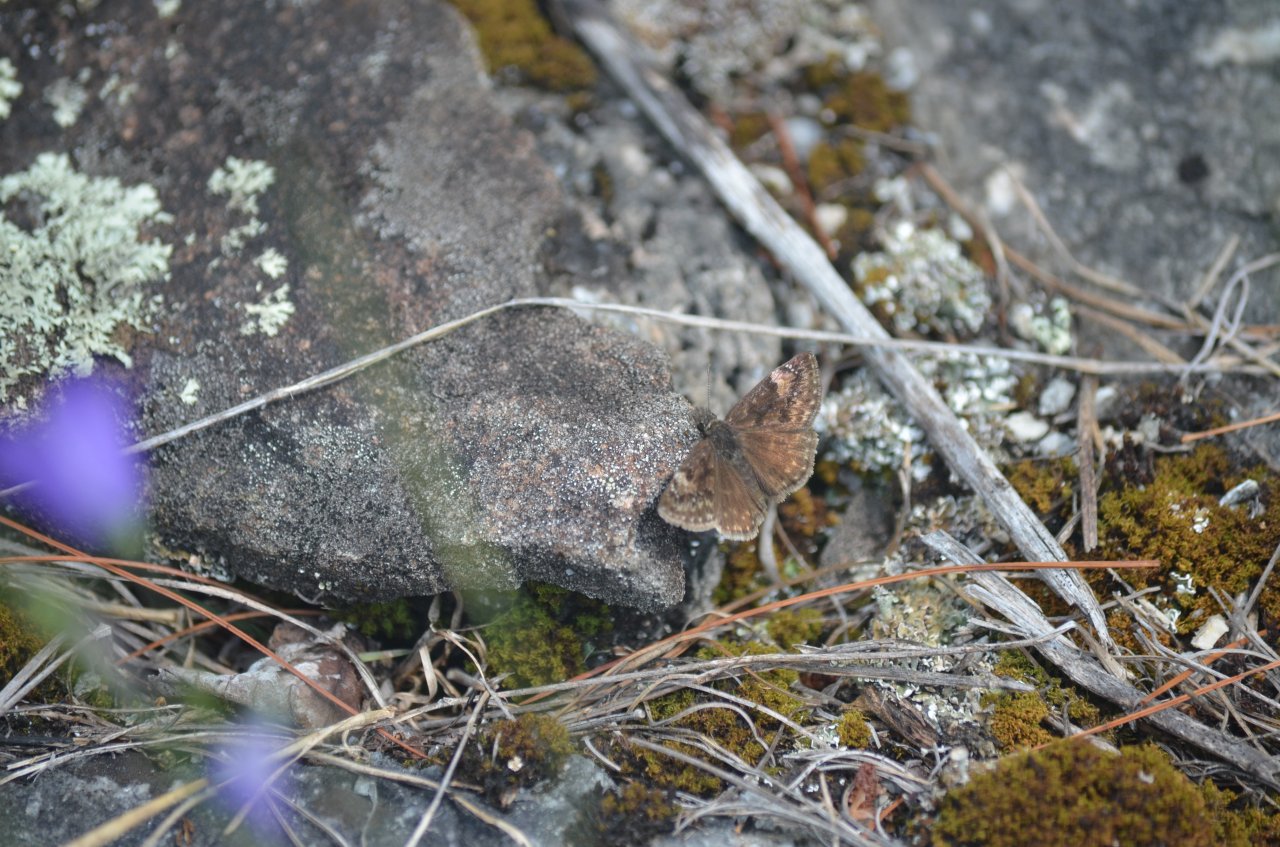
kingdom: Animalia
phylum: Arthropoda
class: Insecta
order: Lepidoptera
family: Hesperiidae
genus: Gesta
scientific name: Gesta
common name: Columbine Duskywing
